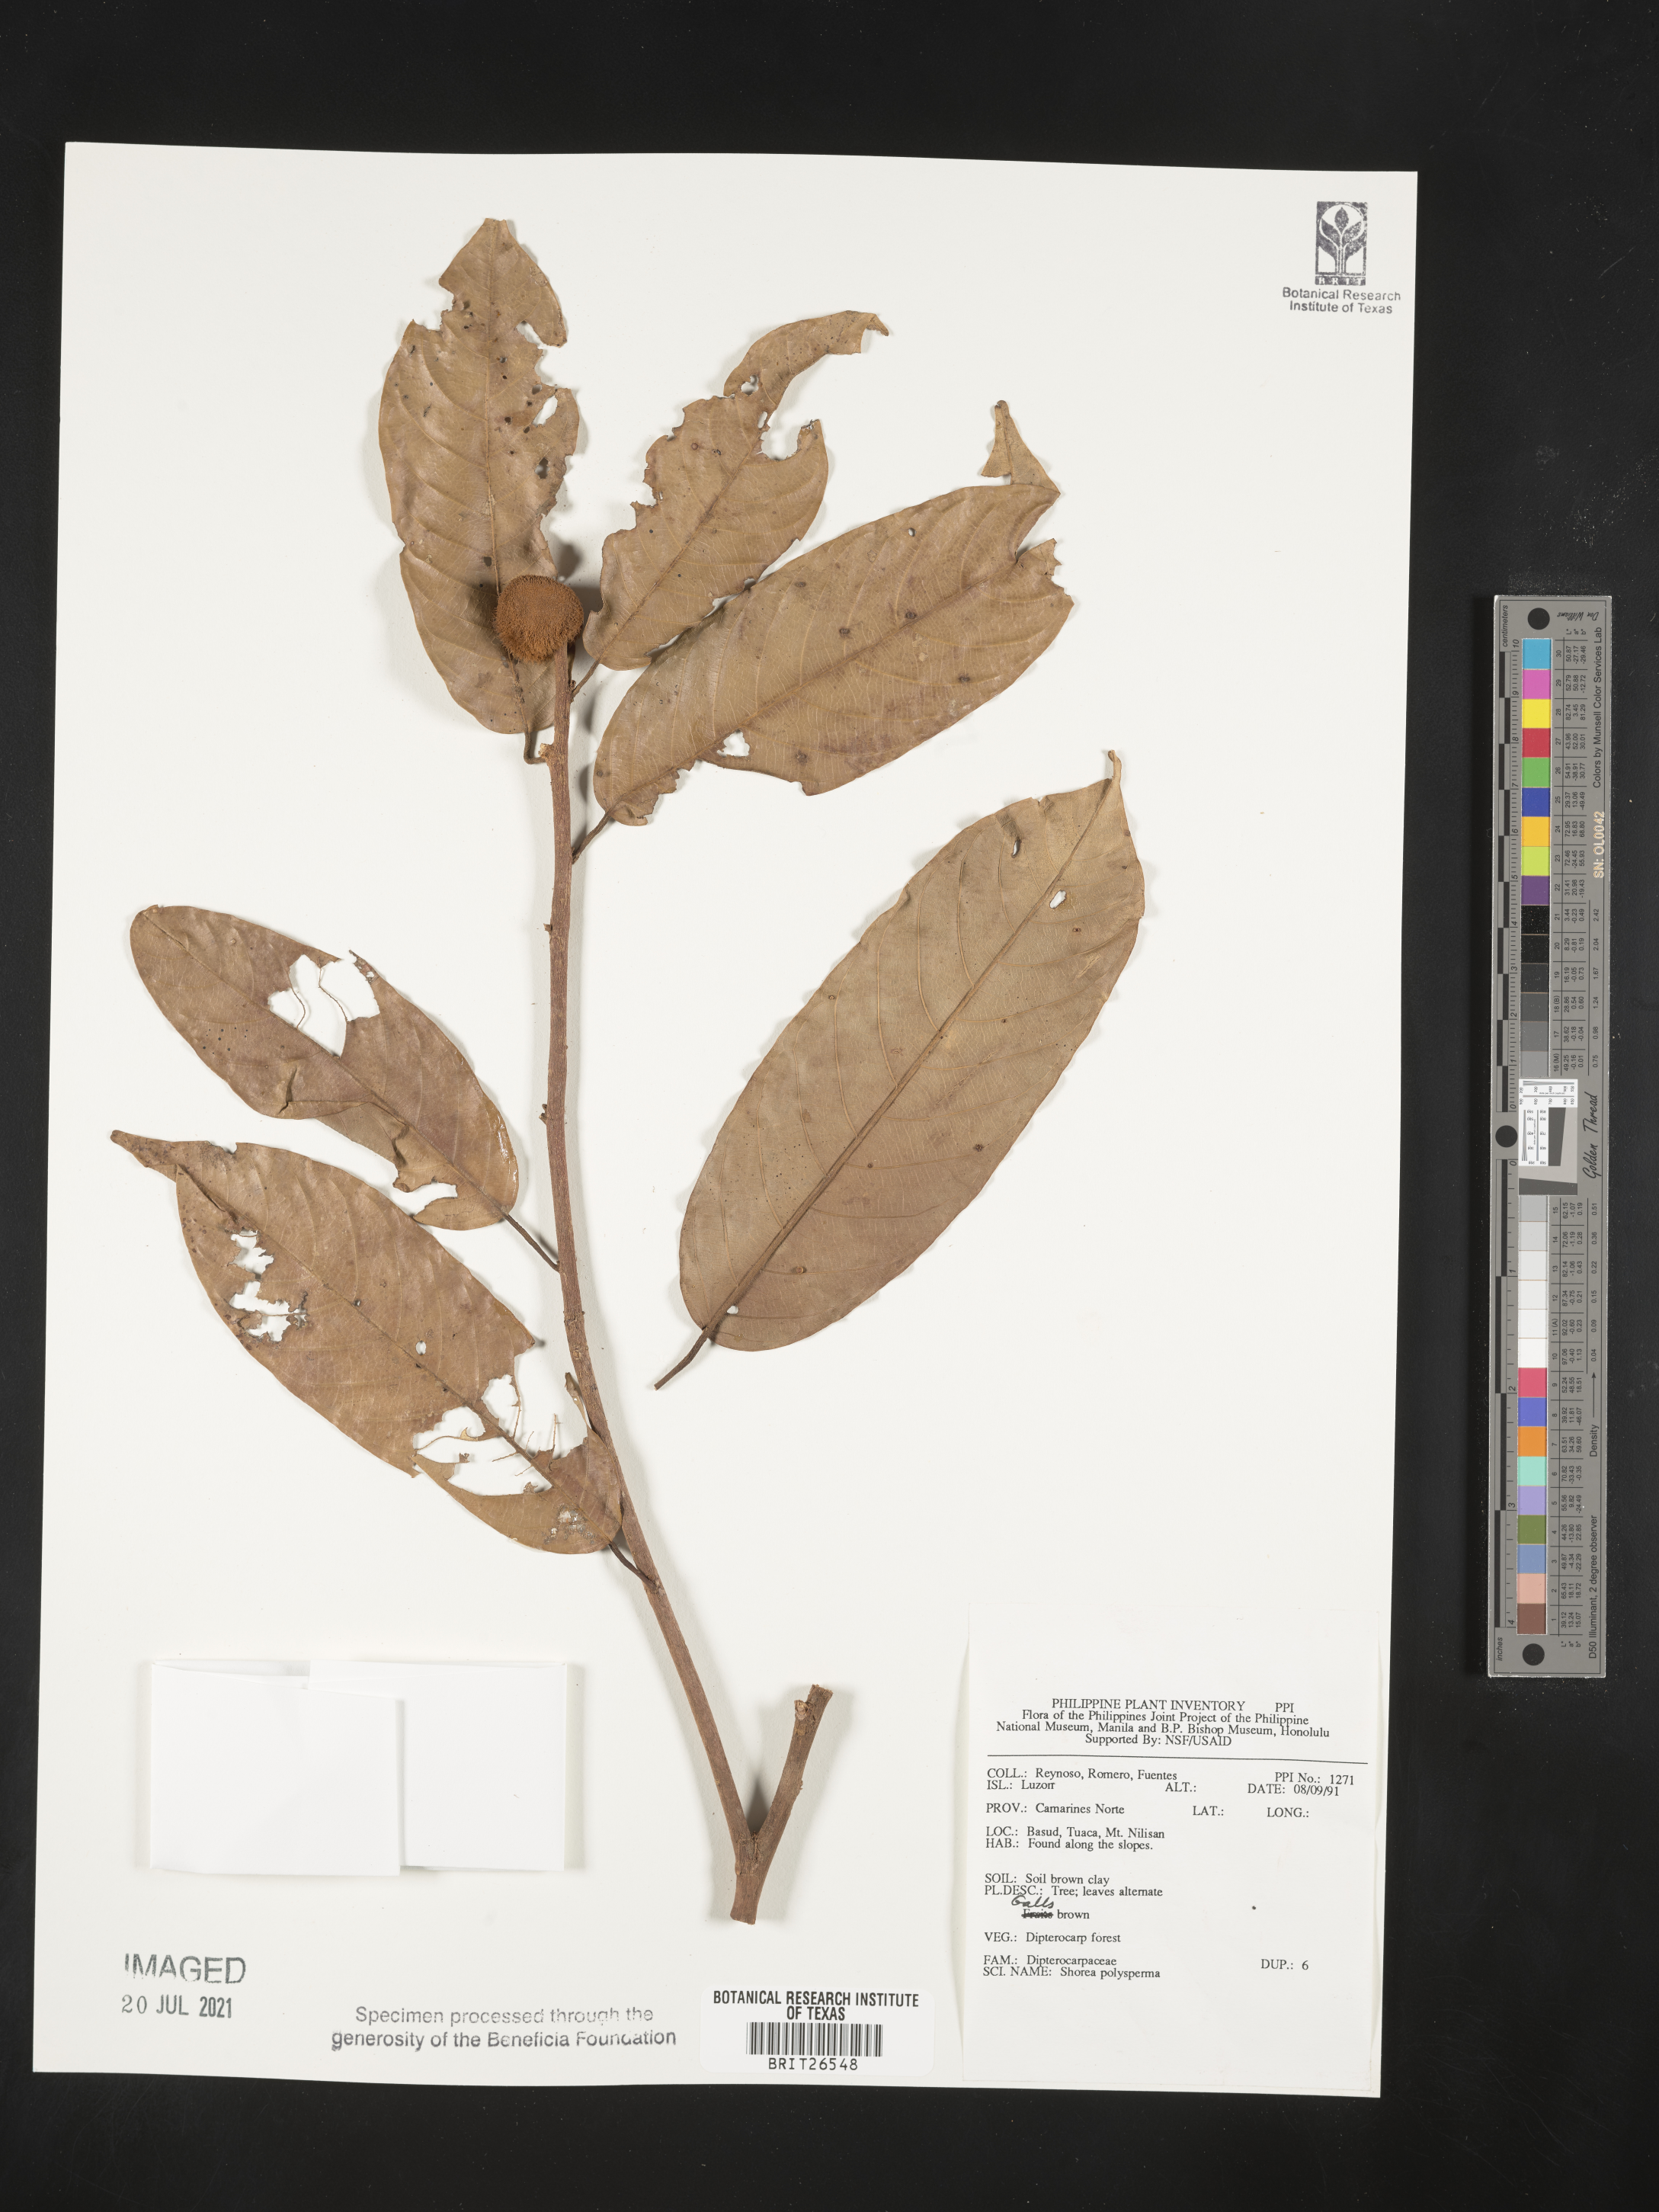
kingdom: Plantae
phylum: Tracheophyta
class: Magnoliopsida
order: Malvales
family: Dipterocarpaceae
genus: Shorea
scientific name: Shorea polysperma
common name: Dark-red philippine-mahogany
